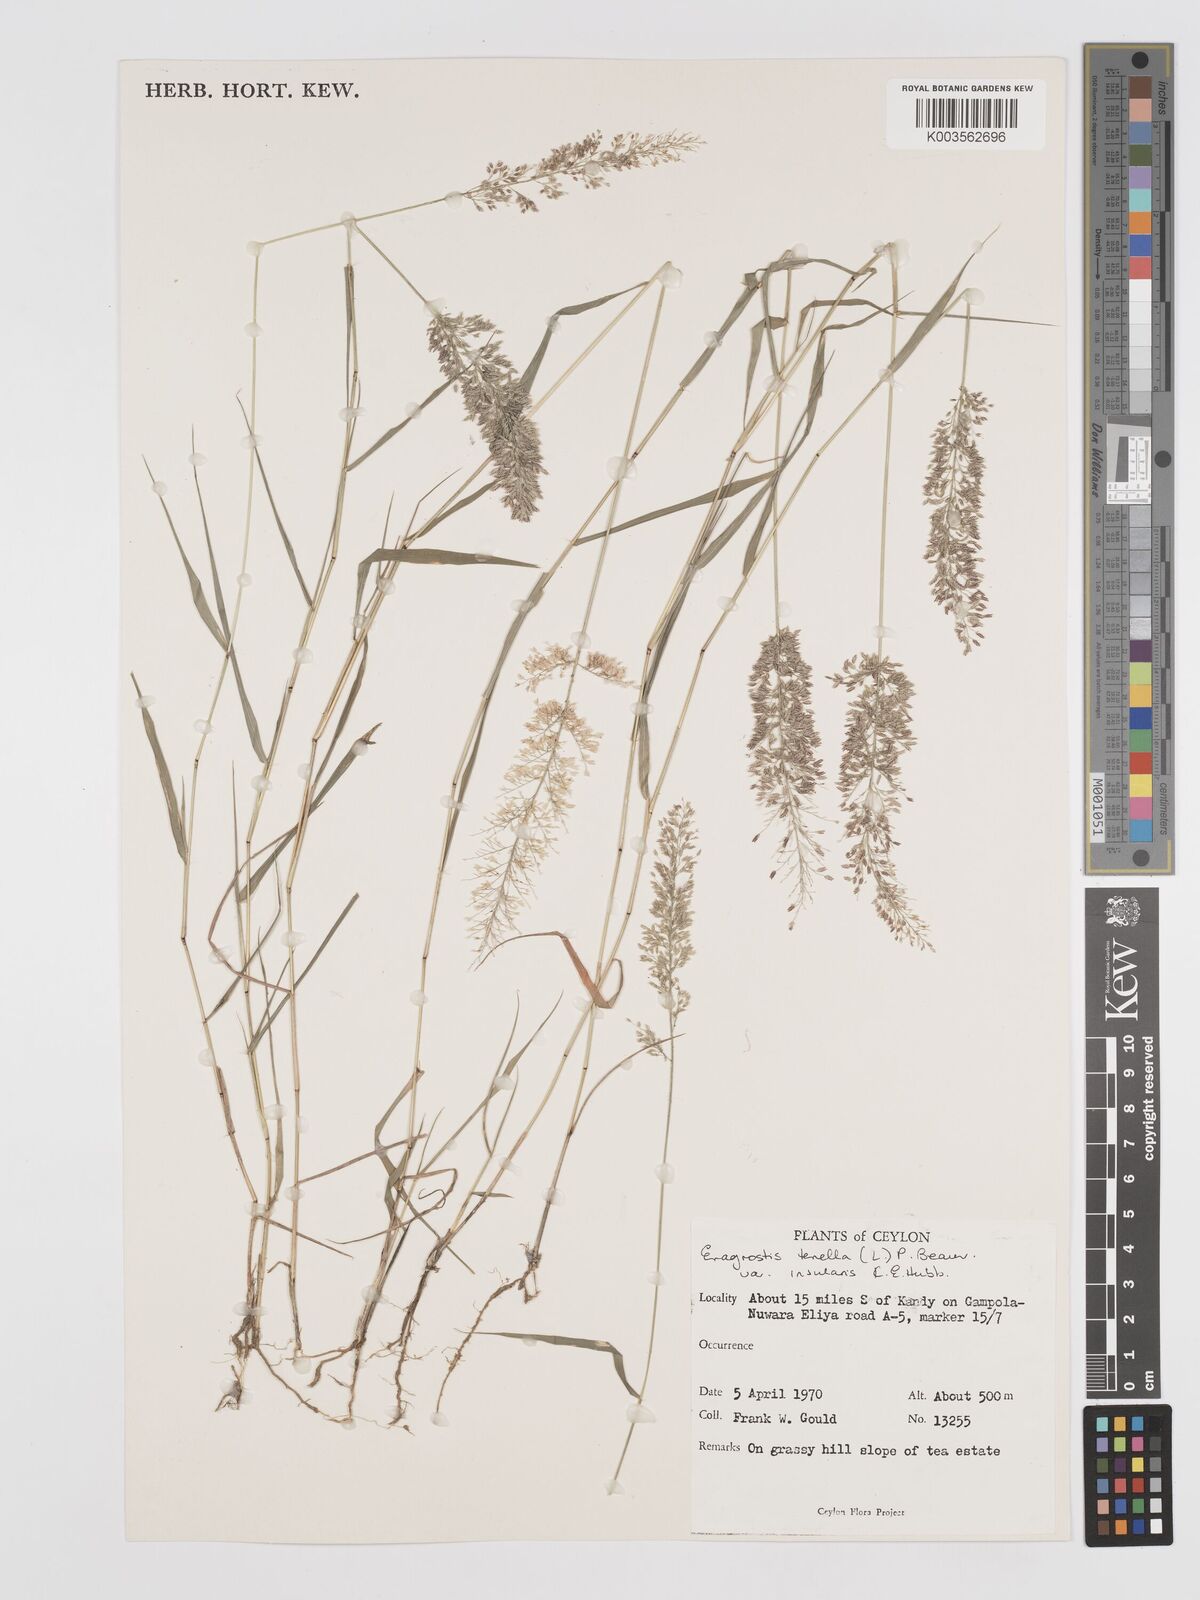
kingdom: Plantae
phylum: Tracheophyta
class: Liliopsida
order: Poales
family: Poaceae
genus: Eragrostis
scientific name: Eragrostis tenella
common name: Japanese lovegrass
